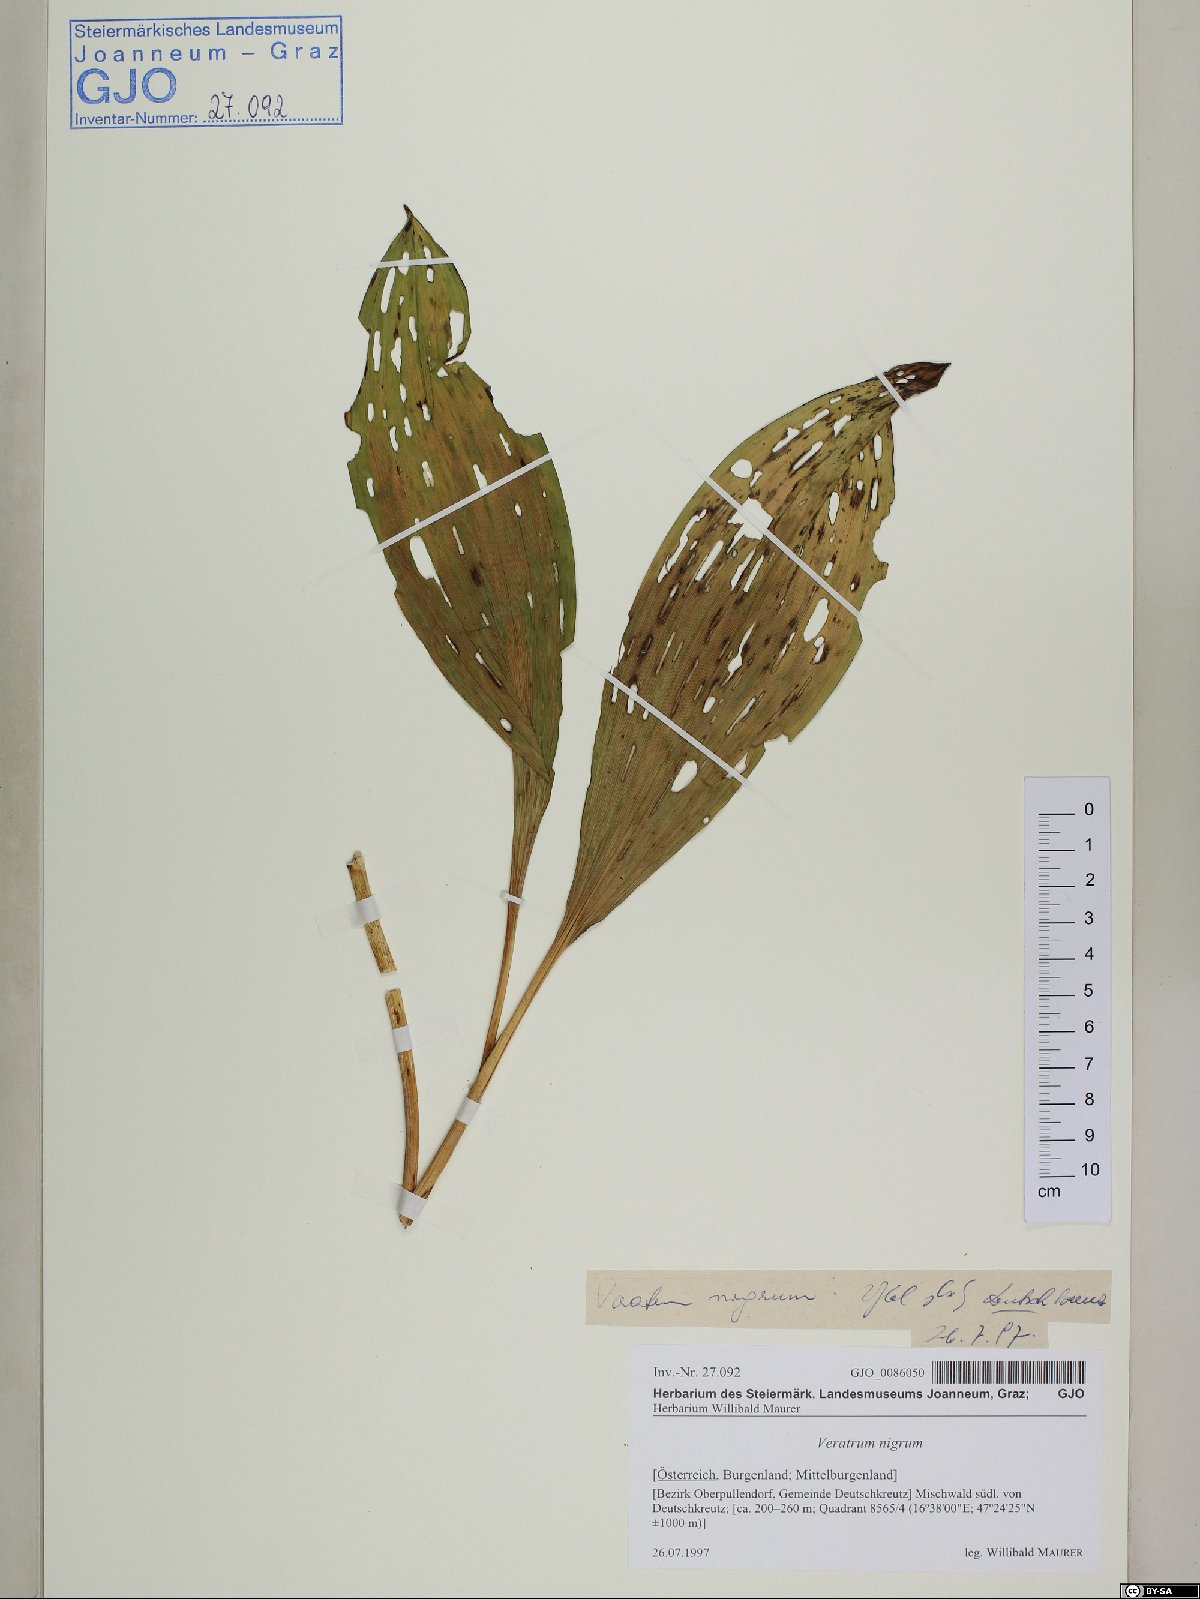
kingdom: Plantae
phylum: Tracheophyta
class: Liliopsida
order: Liliales
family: Melanthiaceae
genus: Veratrum
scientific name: Veratrum nigrum
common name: Black veratrum
